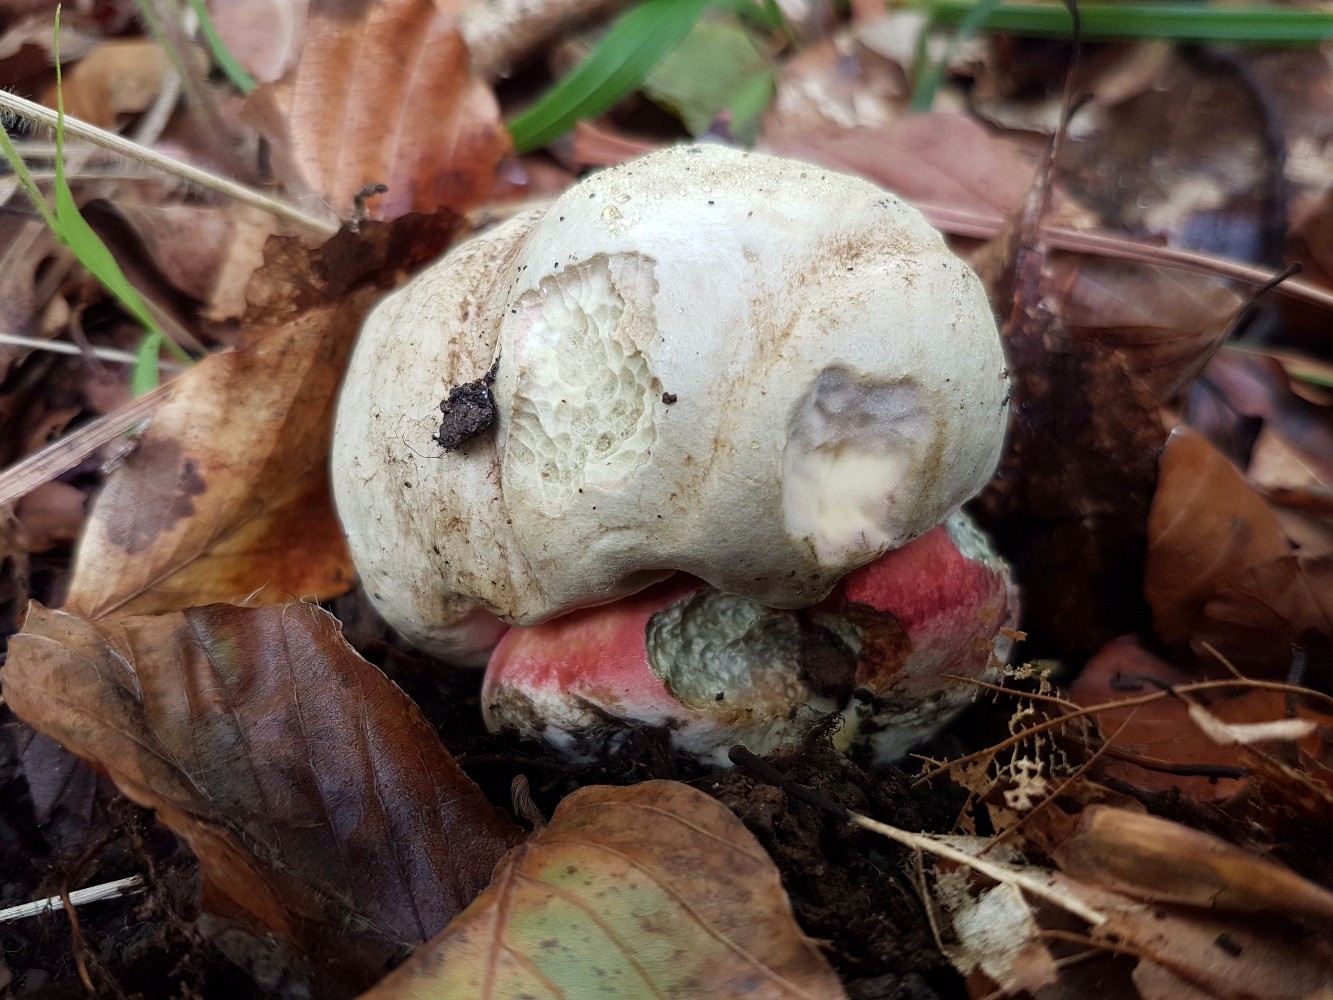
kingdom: Fungi
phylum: Basidiomycota
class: Agaricomycetes
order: Boletales
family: Boletaceae
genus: Rubroboletus
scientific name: Rubroboletus satanas
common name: Satans rørhat
